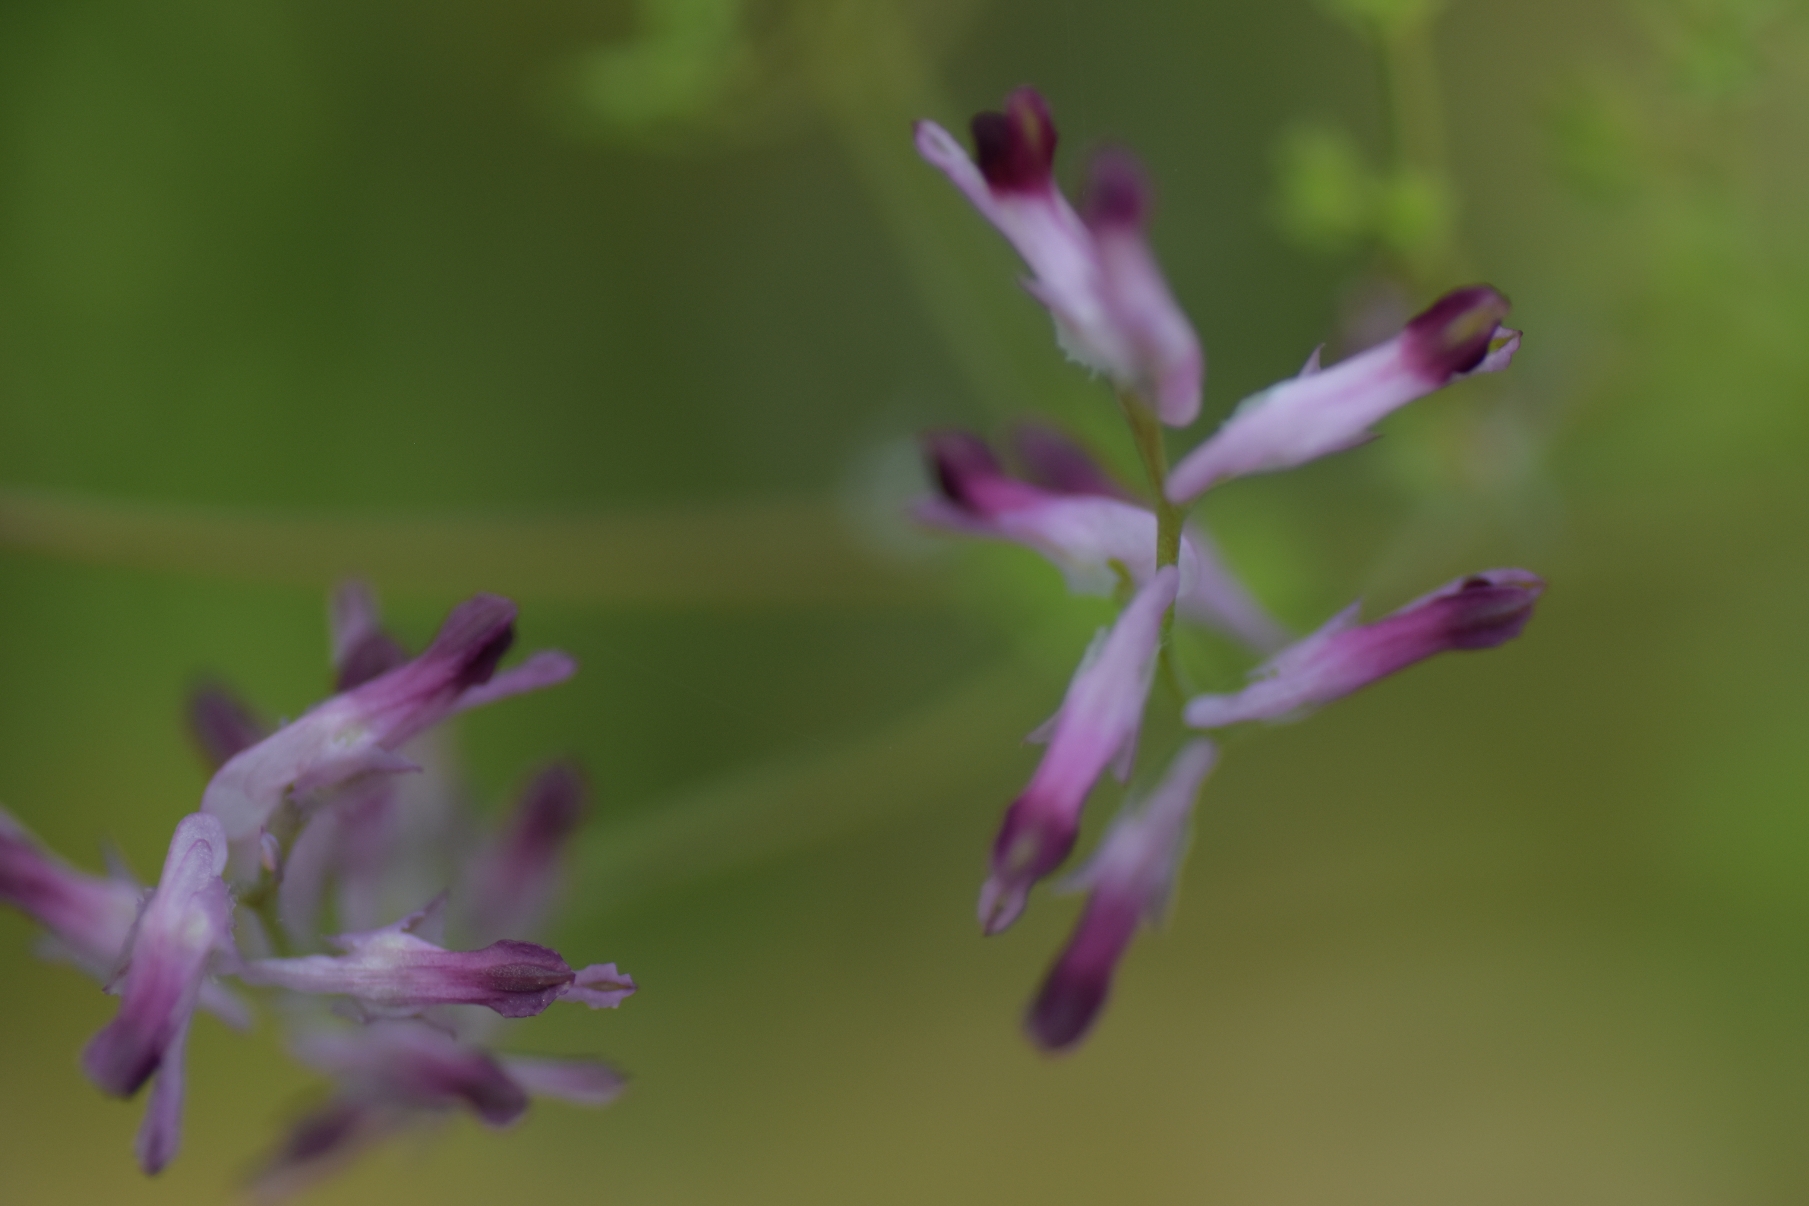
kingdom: Plantae
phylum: Tracheophyta
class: Magnoliopsida
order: Ranunculales
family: Papaveraceae
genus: Fumaria
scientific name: Fumaria officinalis
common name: Læge-jordrøg
